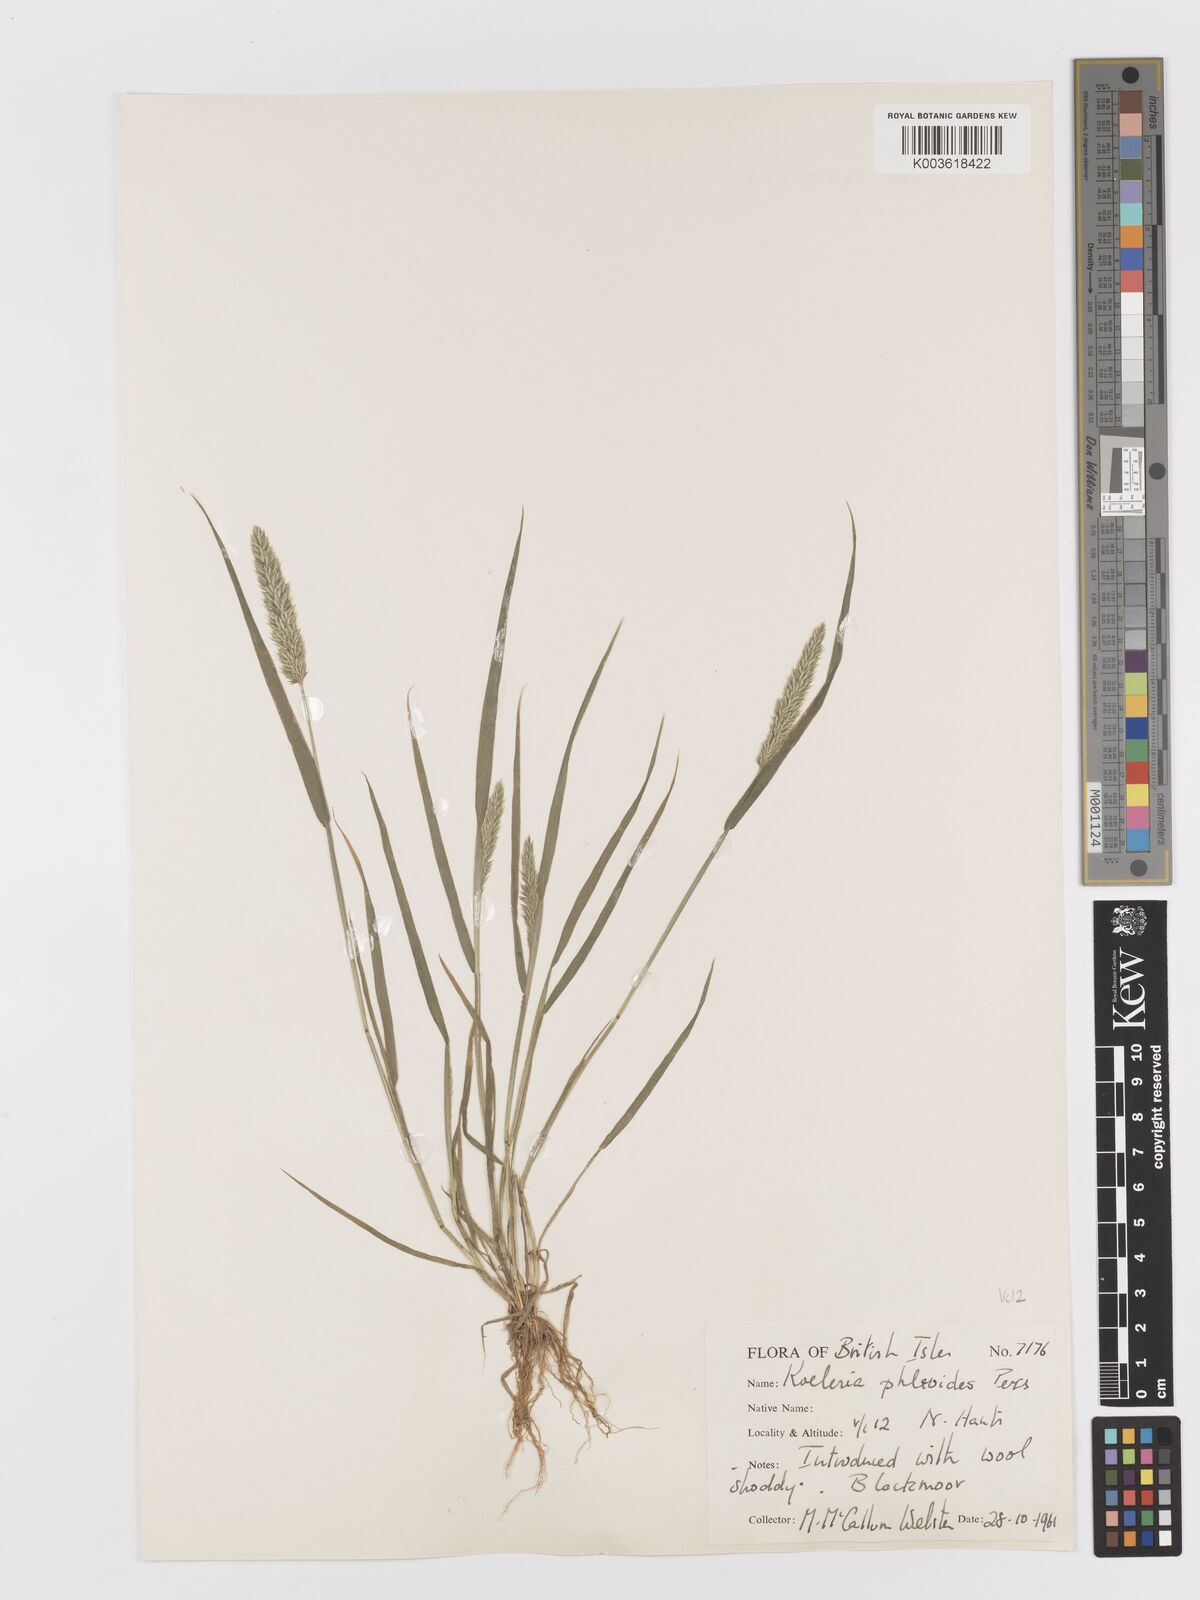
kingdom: Plantae
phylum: Tracheophyta
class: Liliopsida
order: Poales
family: Poaceae
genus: Rostraria
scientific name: Rostraria cristata
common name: Mediterranean hair-grass
